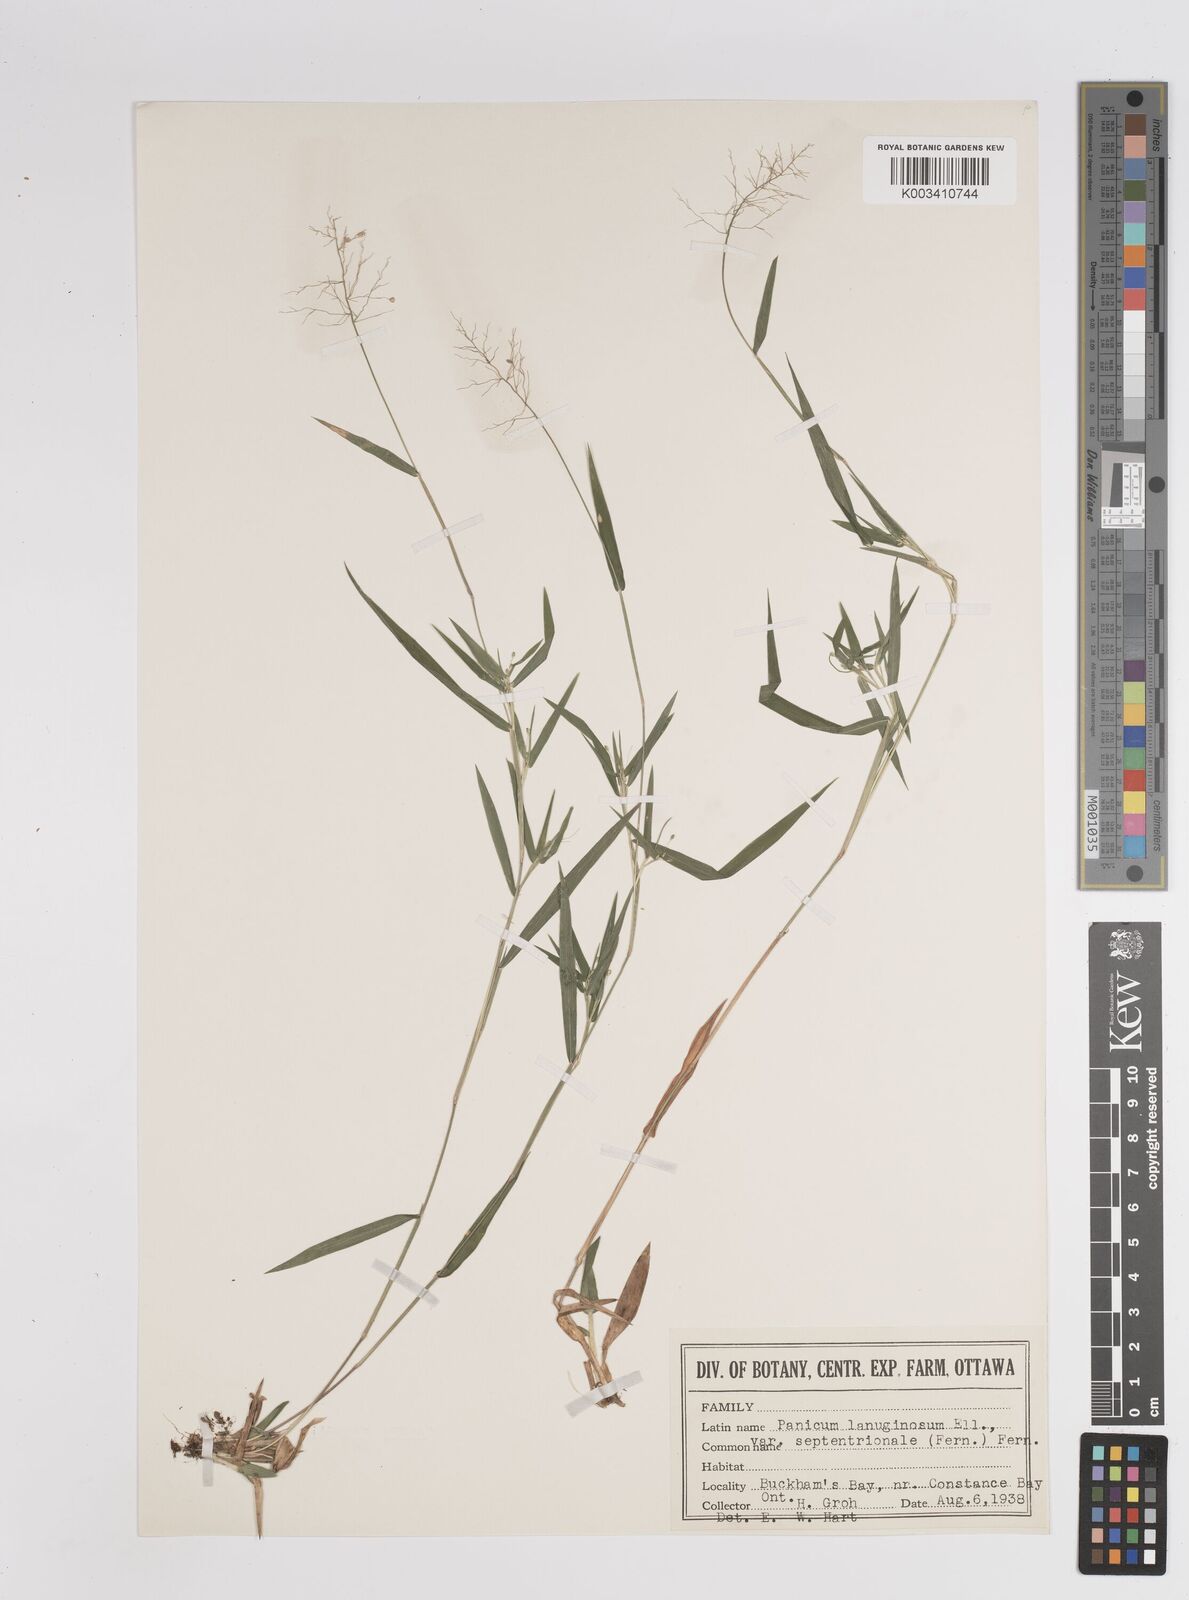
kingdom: Plantae
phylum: Tracheophyta
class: Liliopsida
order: Poales
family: Poaceae
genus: Dichanthelium
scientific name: Dichanthelium lanuginosum
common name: Woolly panicgrass
